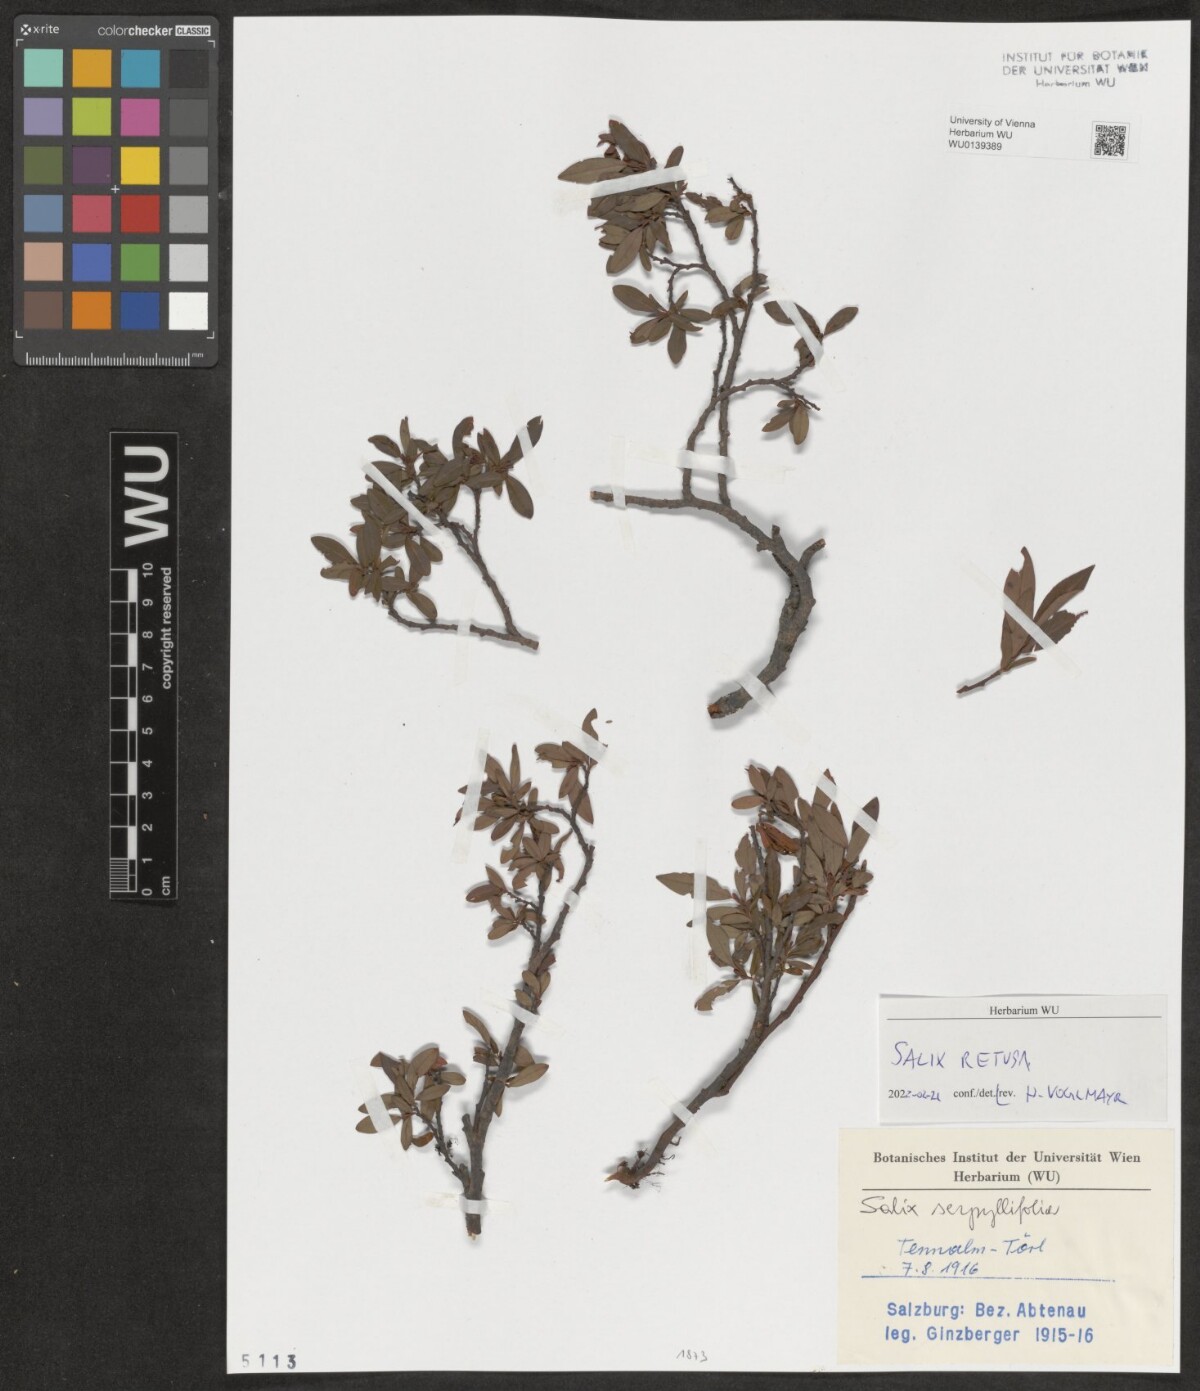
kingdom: Plantae
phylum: Tracheophyta
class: Magnoliopsida
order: Malpighiales
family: Salicaceae
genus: Salix
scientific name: Salix retusa
